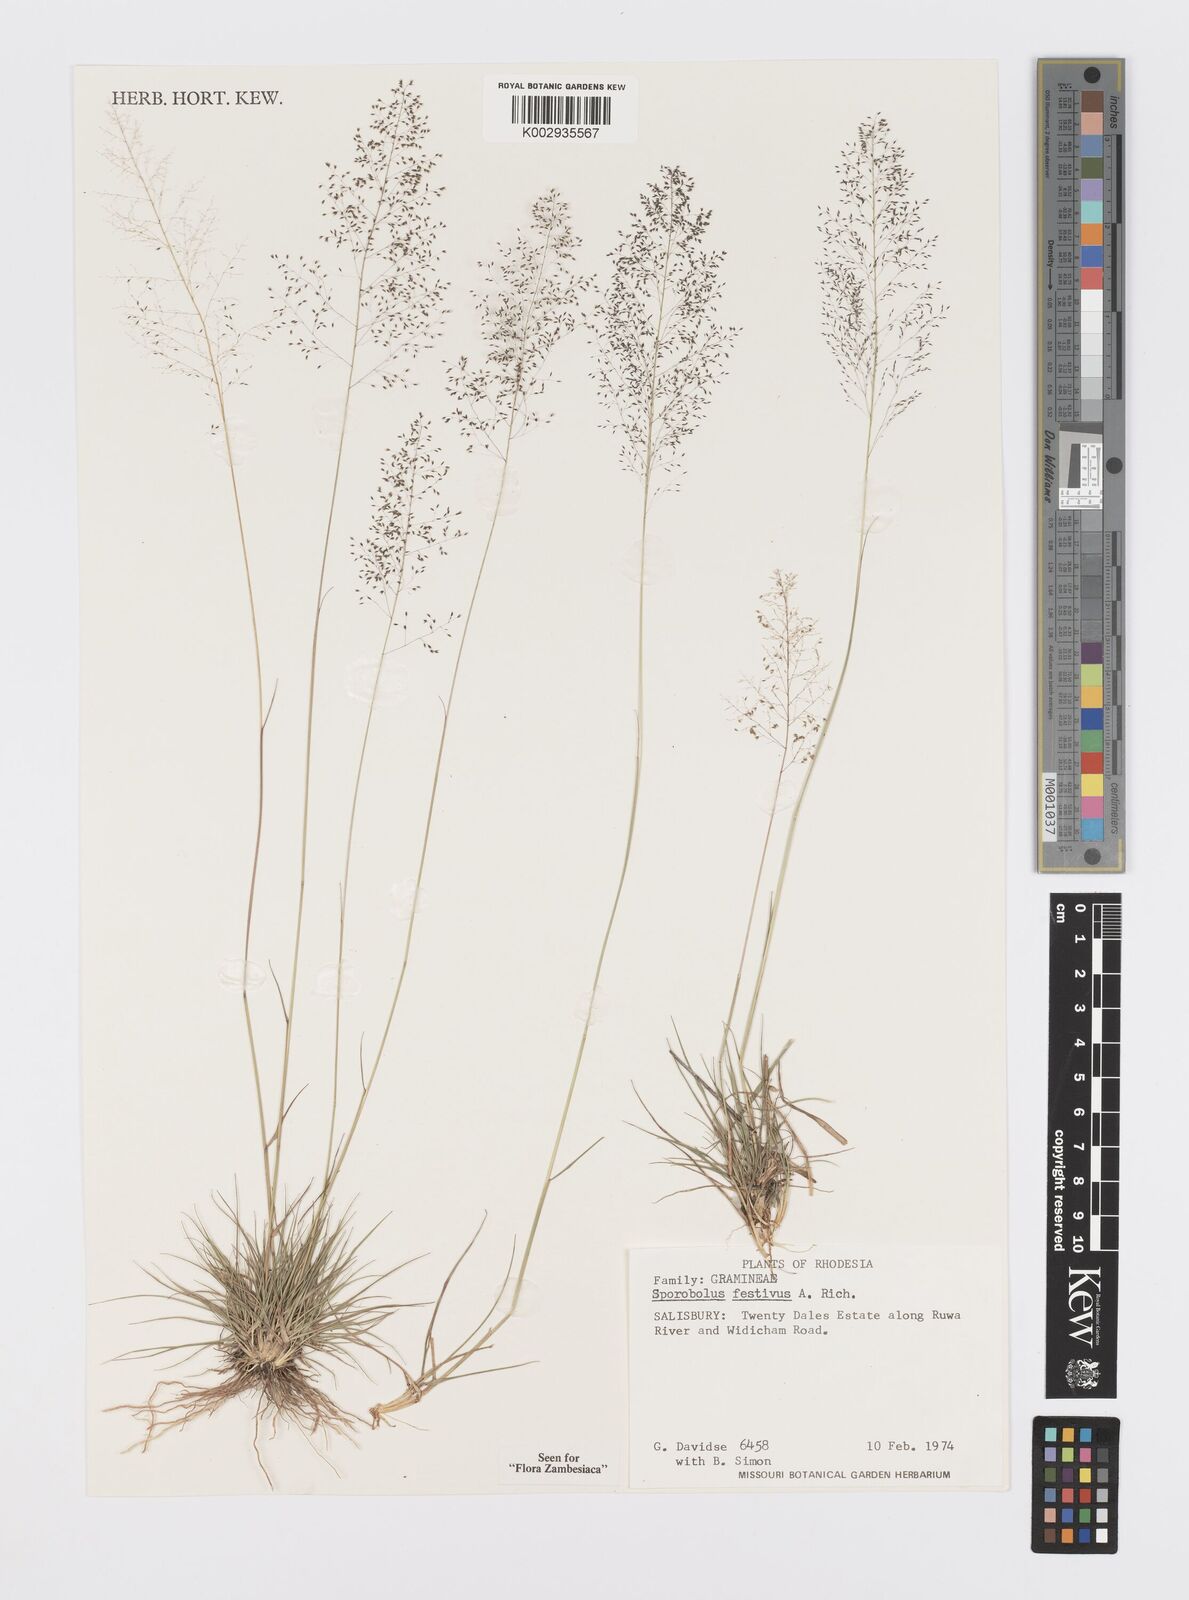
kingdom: Plantae
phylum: Tracheophyta
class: Liliopsida
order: Poales
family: Poaceae
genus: Sporobolus
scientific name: Sporobolus festivus
